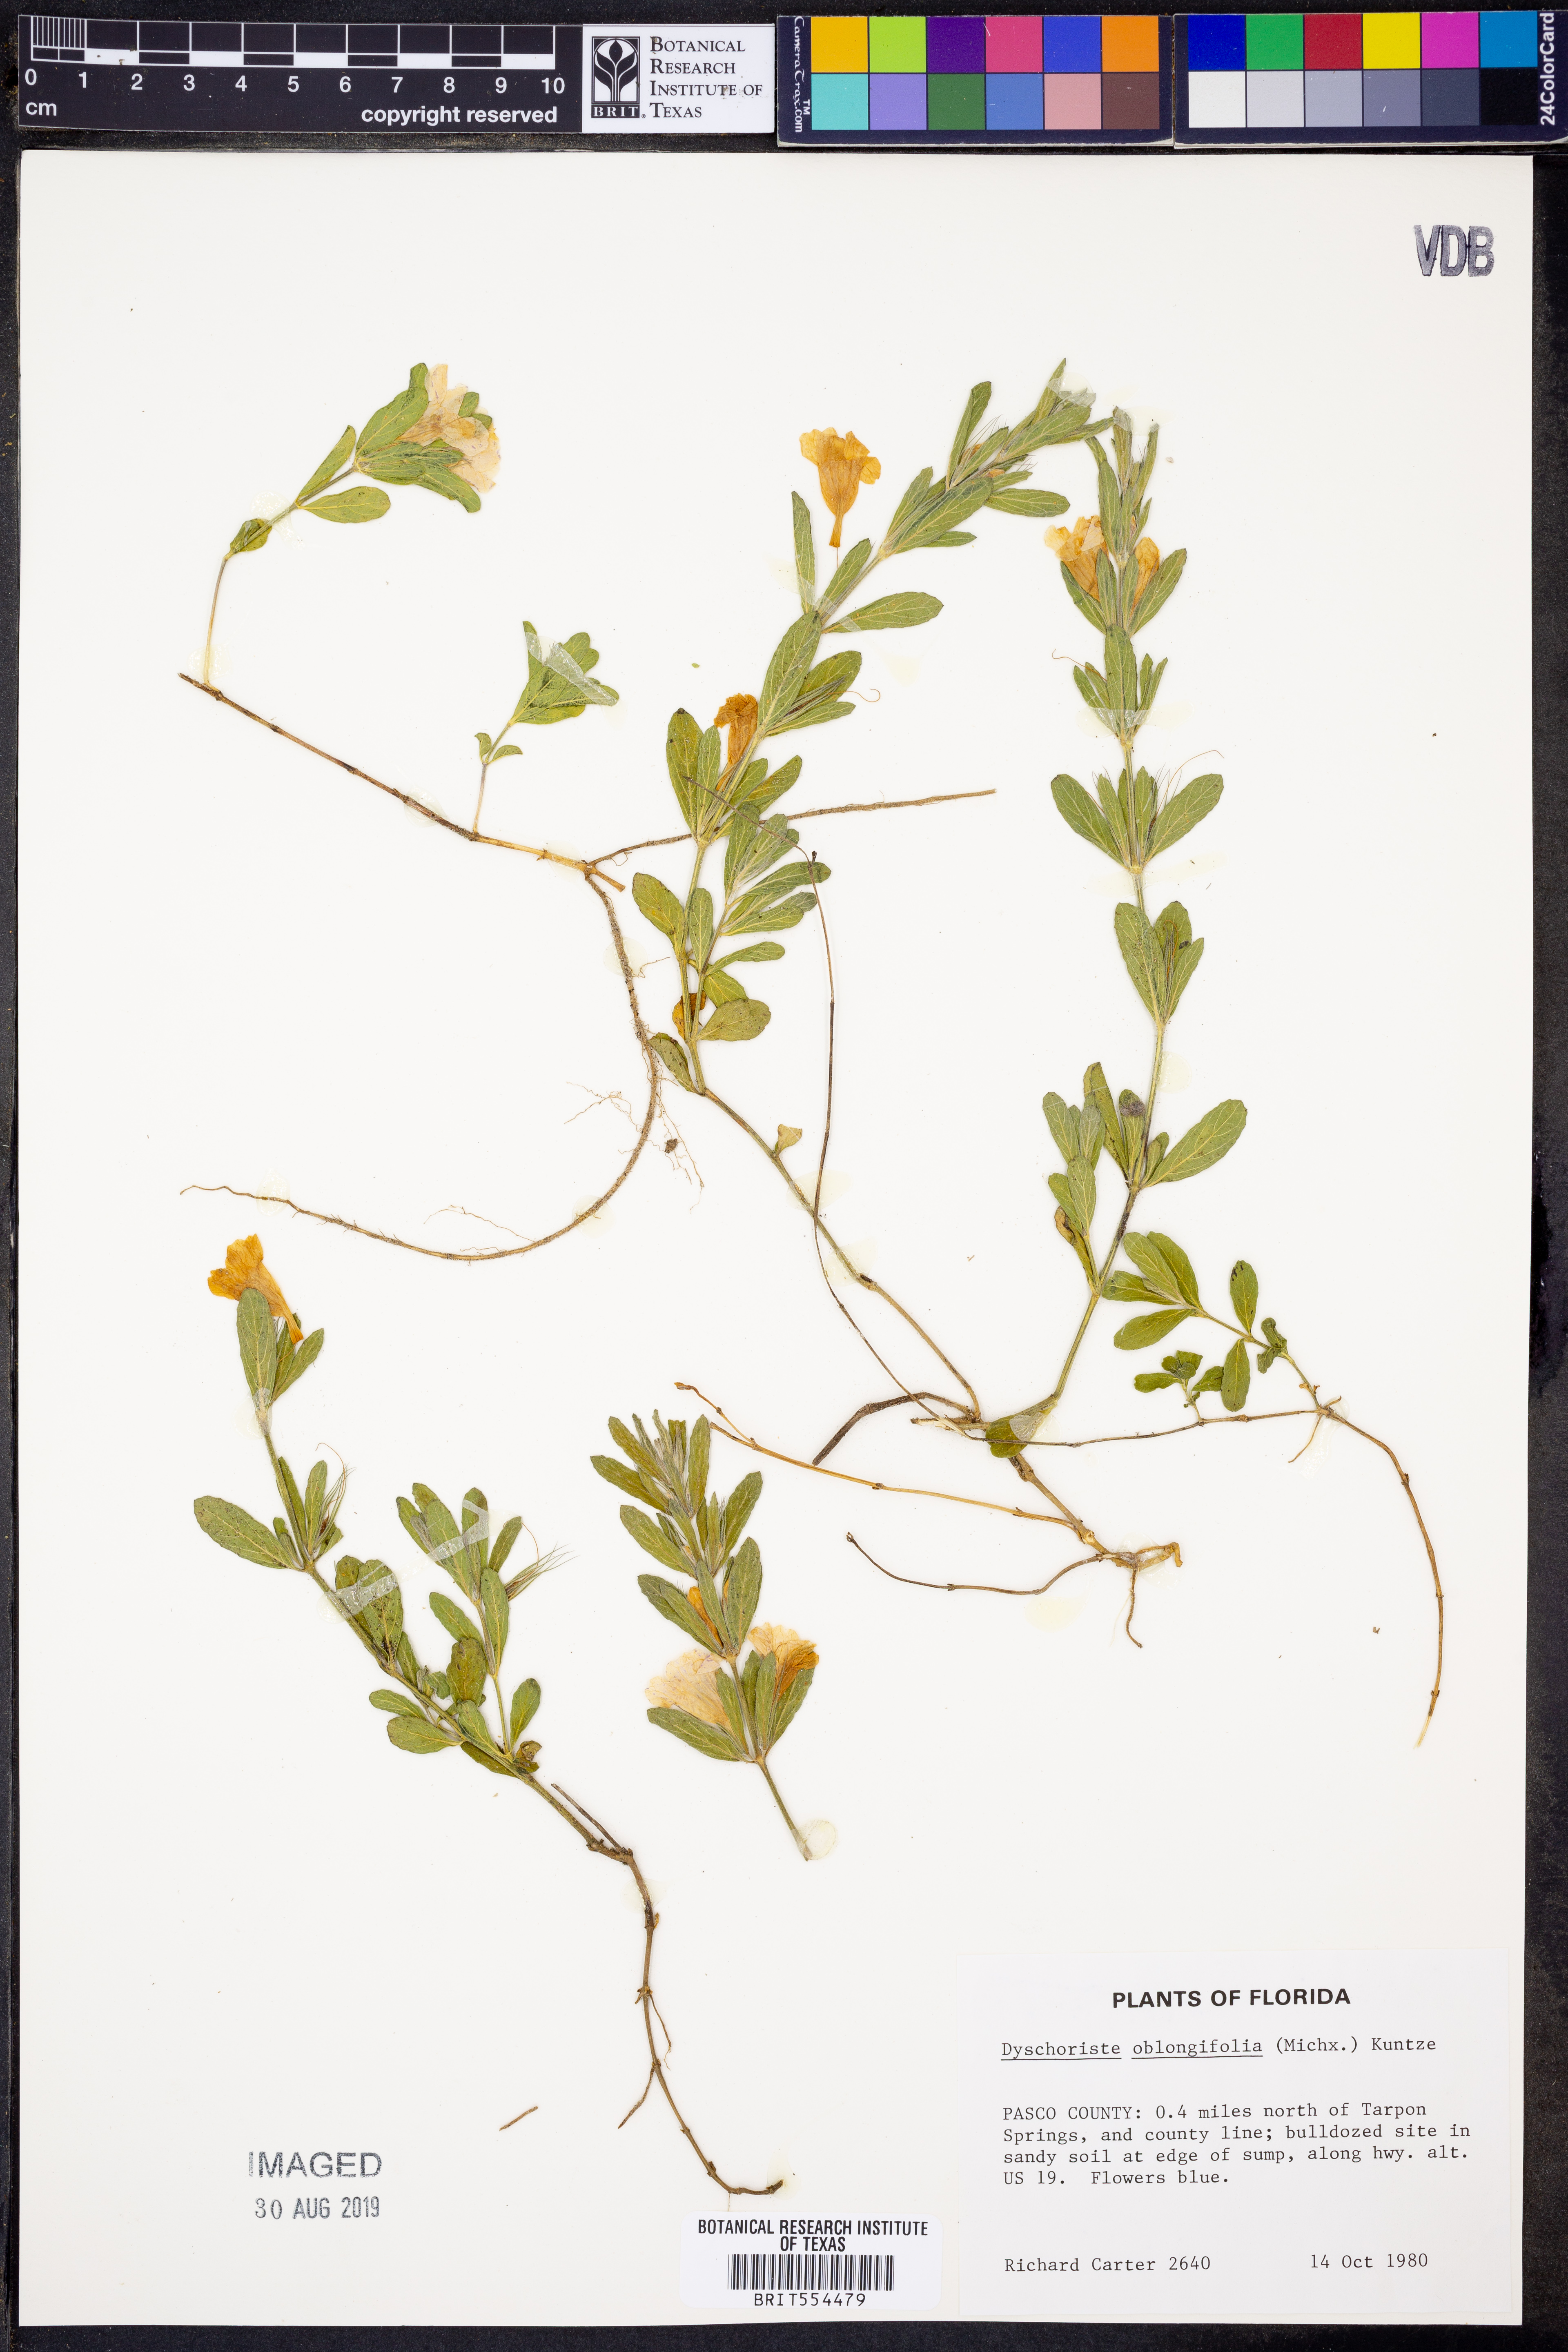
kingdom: Plantae
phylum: Tracheophyta
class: Magnoliopsida
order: Lamiales
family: Acanthaceae
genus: Dyschoriste
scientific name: Dyschoriste oblongifolia
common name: Blue twinflower
